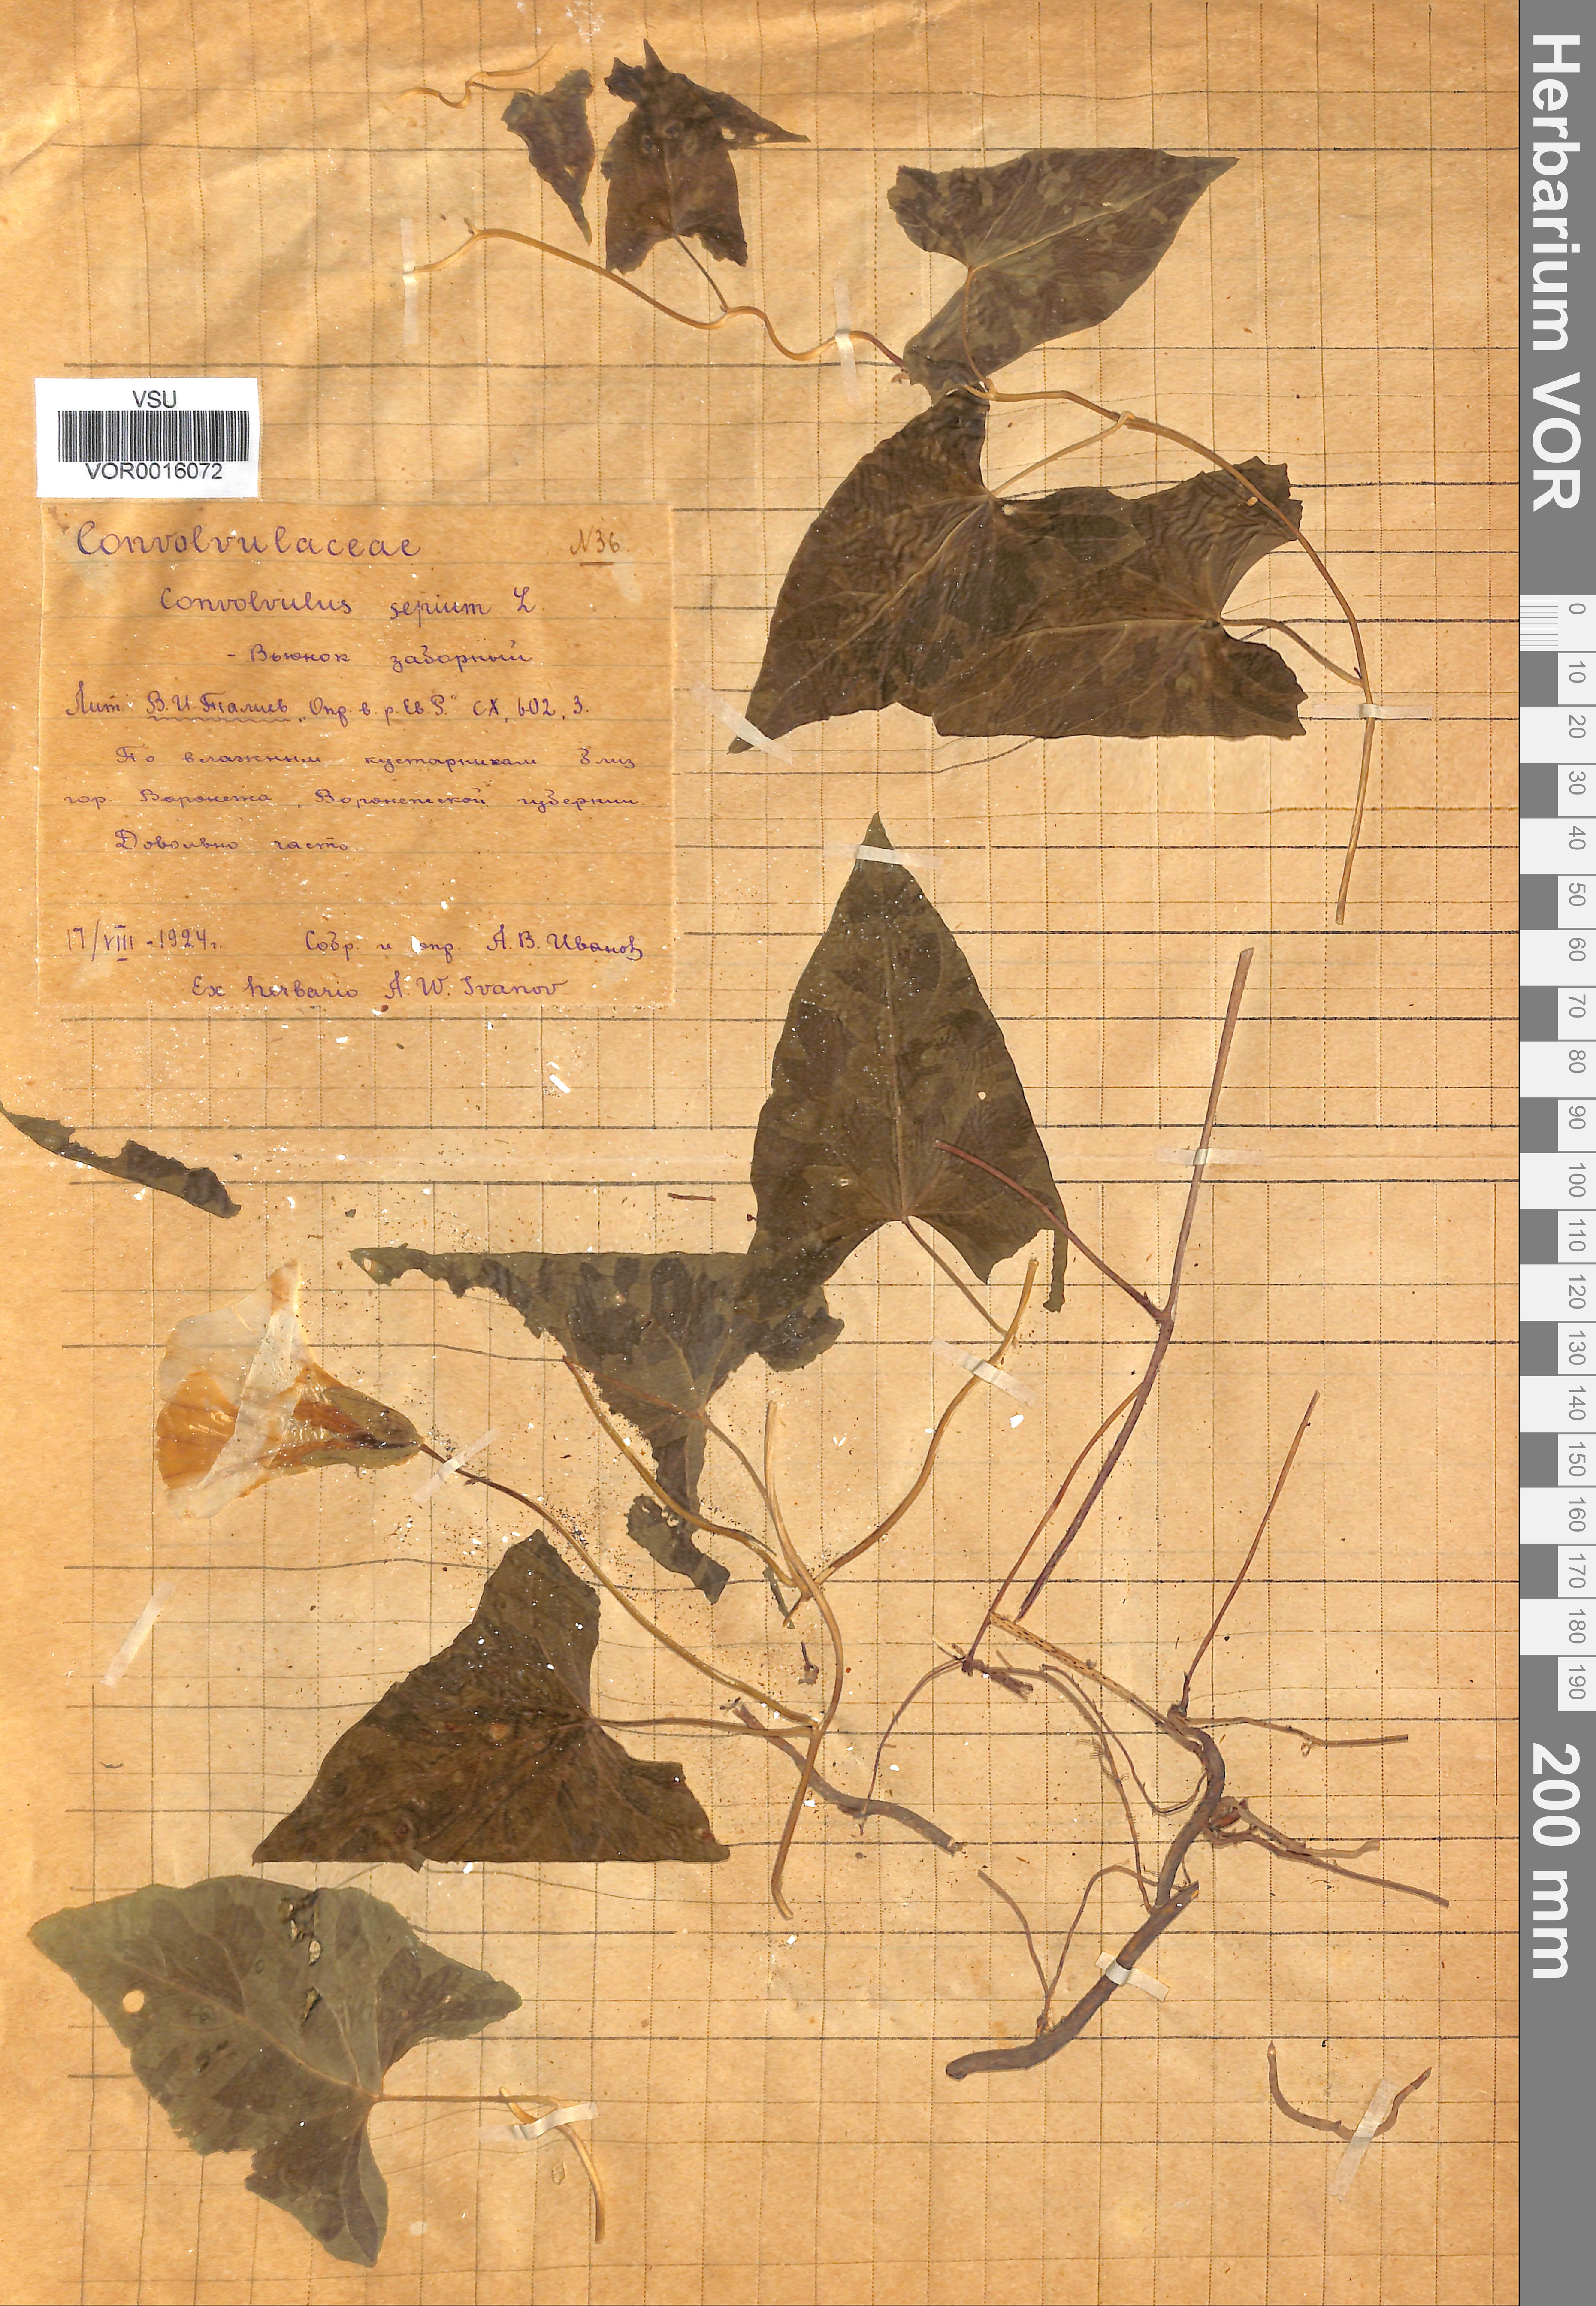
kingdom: Plantae
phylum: Tracheophyta
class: Magnoliopsida
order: Solanales
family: Convolvulaceae
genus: Calystegia
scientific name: Calystegia sepium
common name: Hedge bindweed
